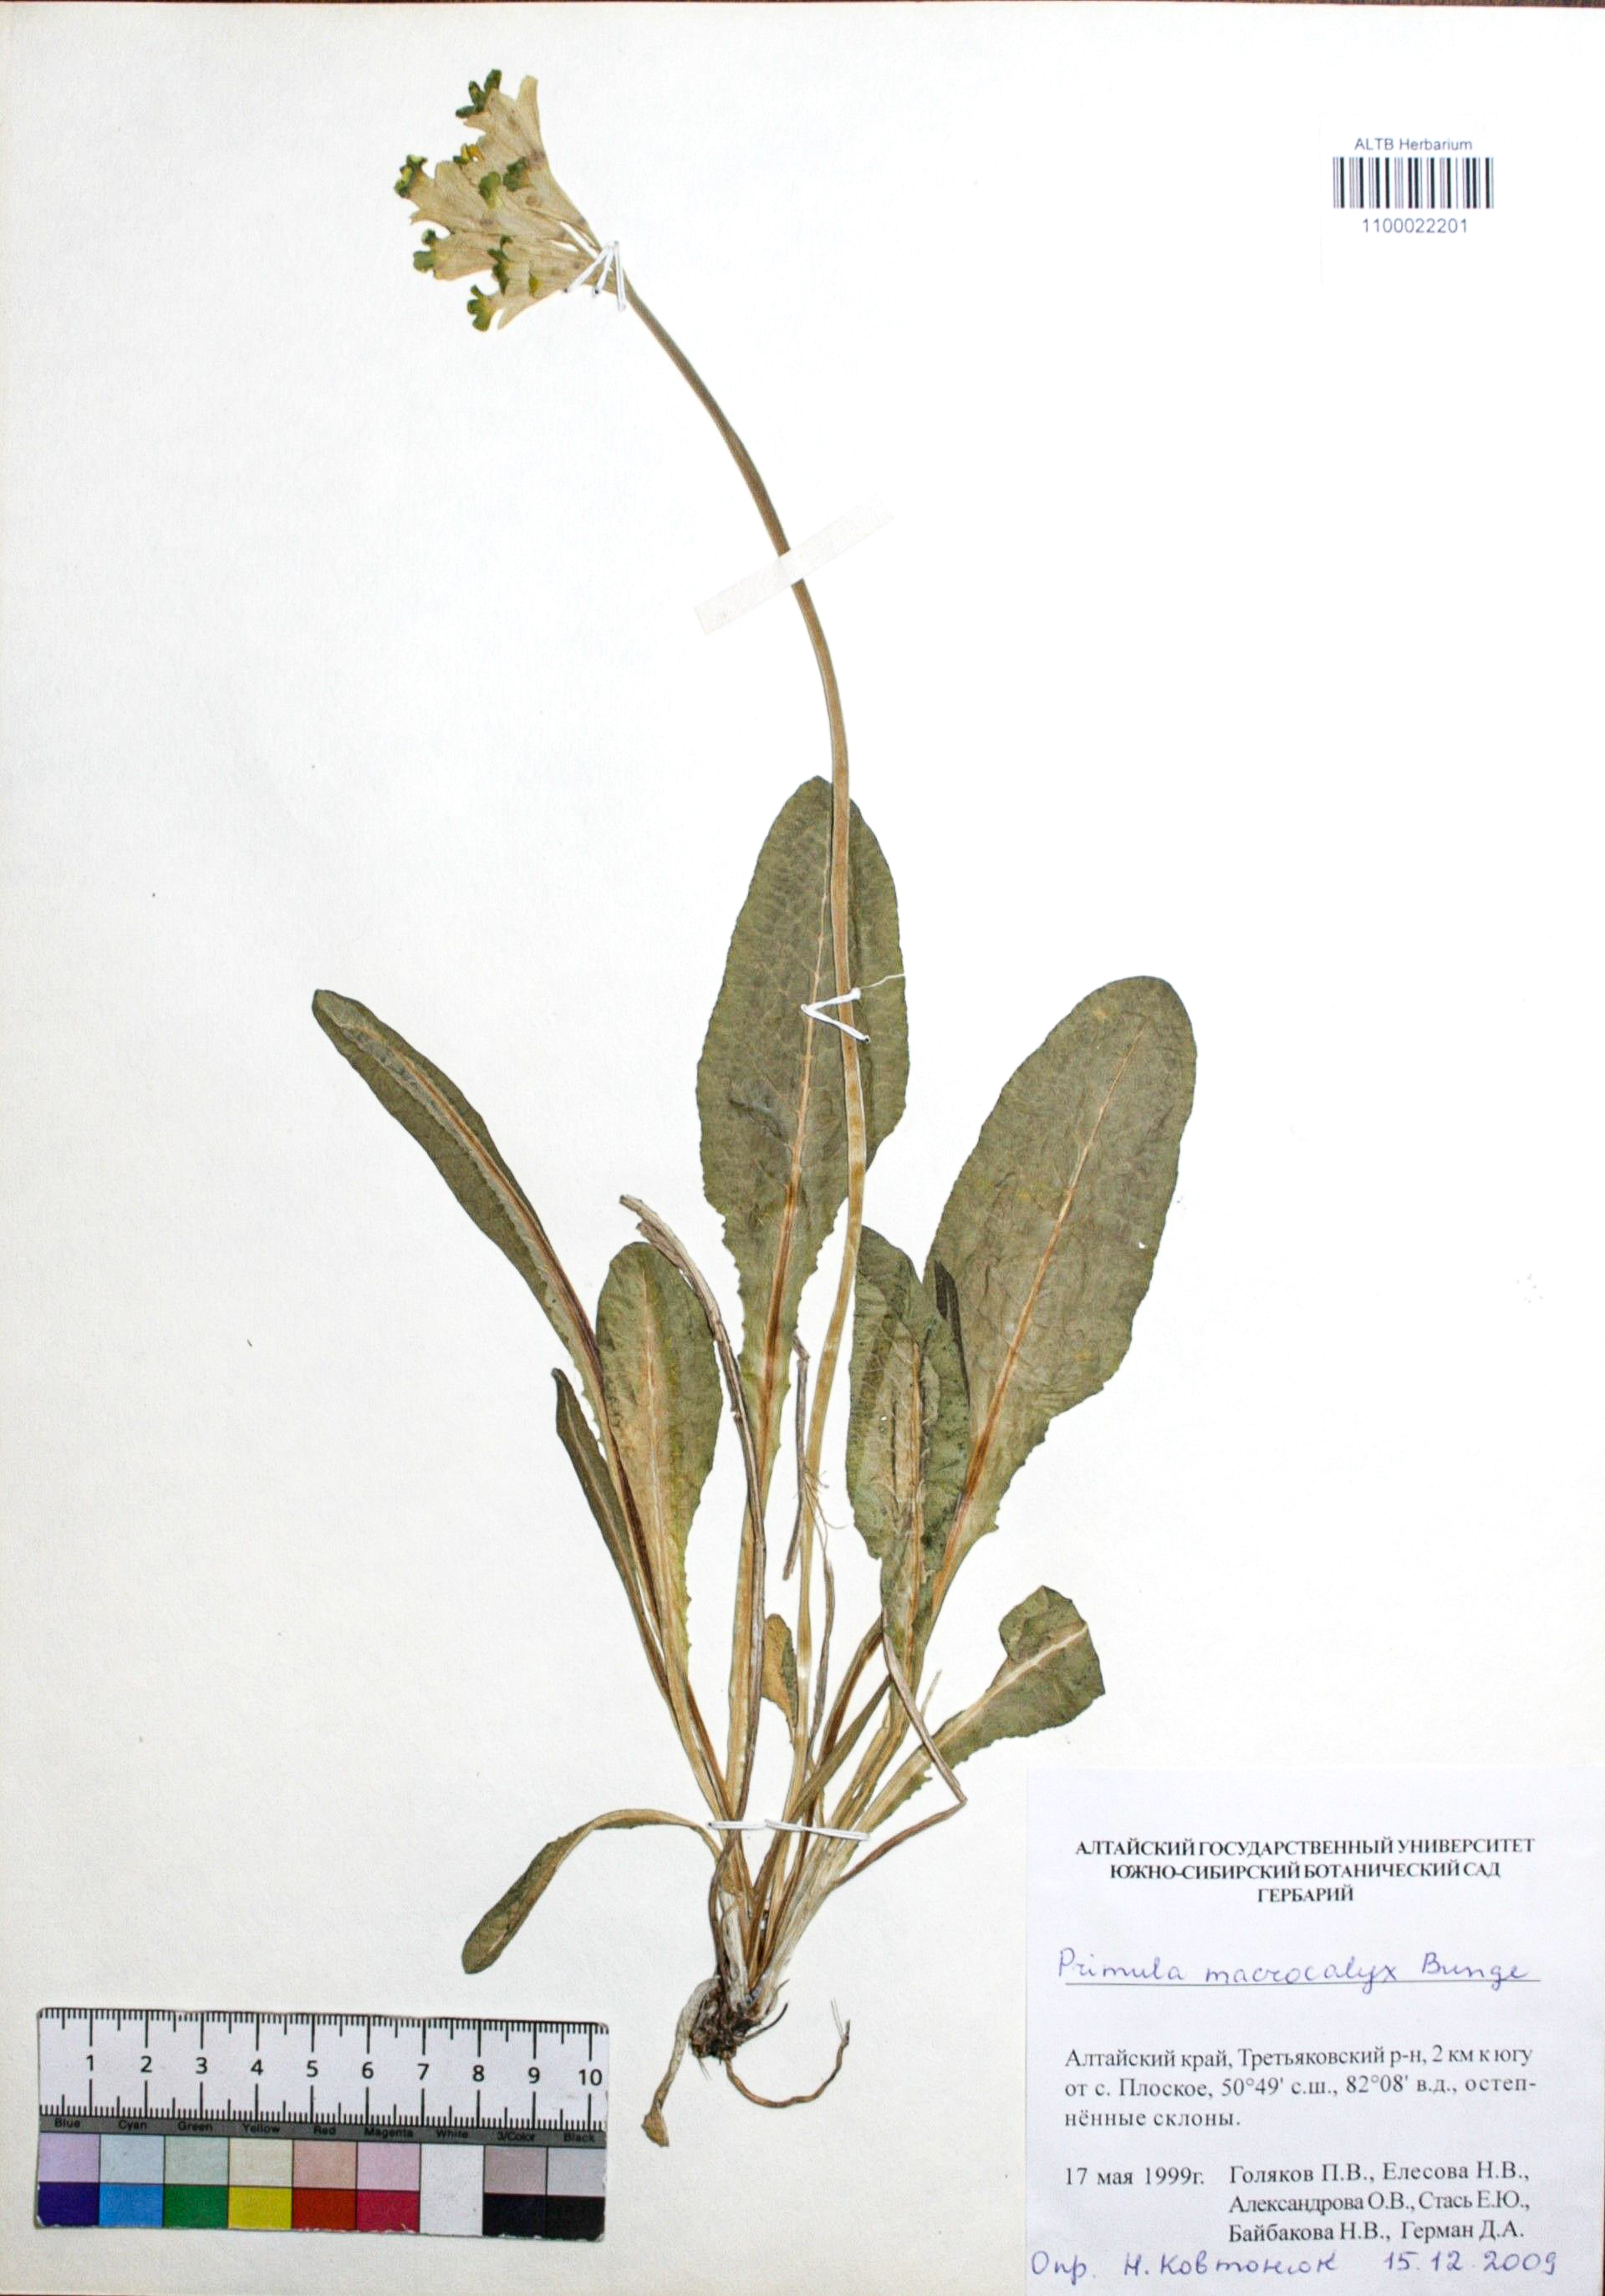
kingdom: Plantae
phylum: Tracheophyta
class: Magnoliopsida
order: Ericales
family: Primulaceae
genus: Primula
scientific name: Primula veris
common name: Cowslip
